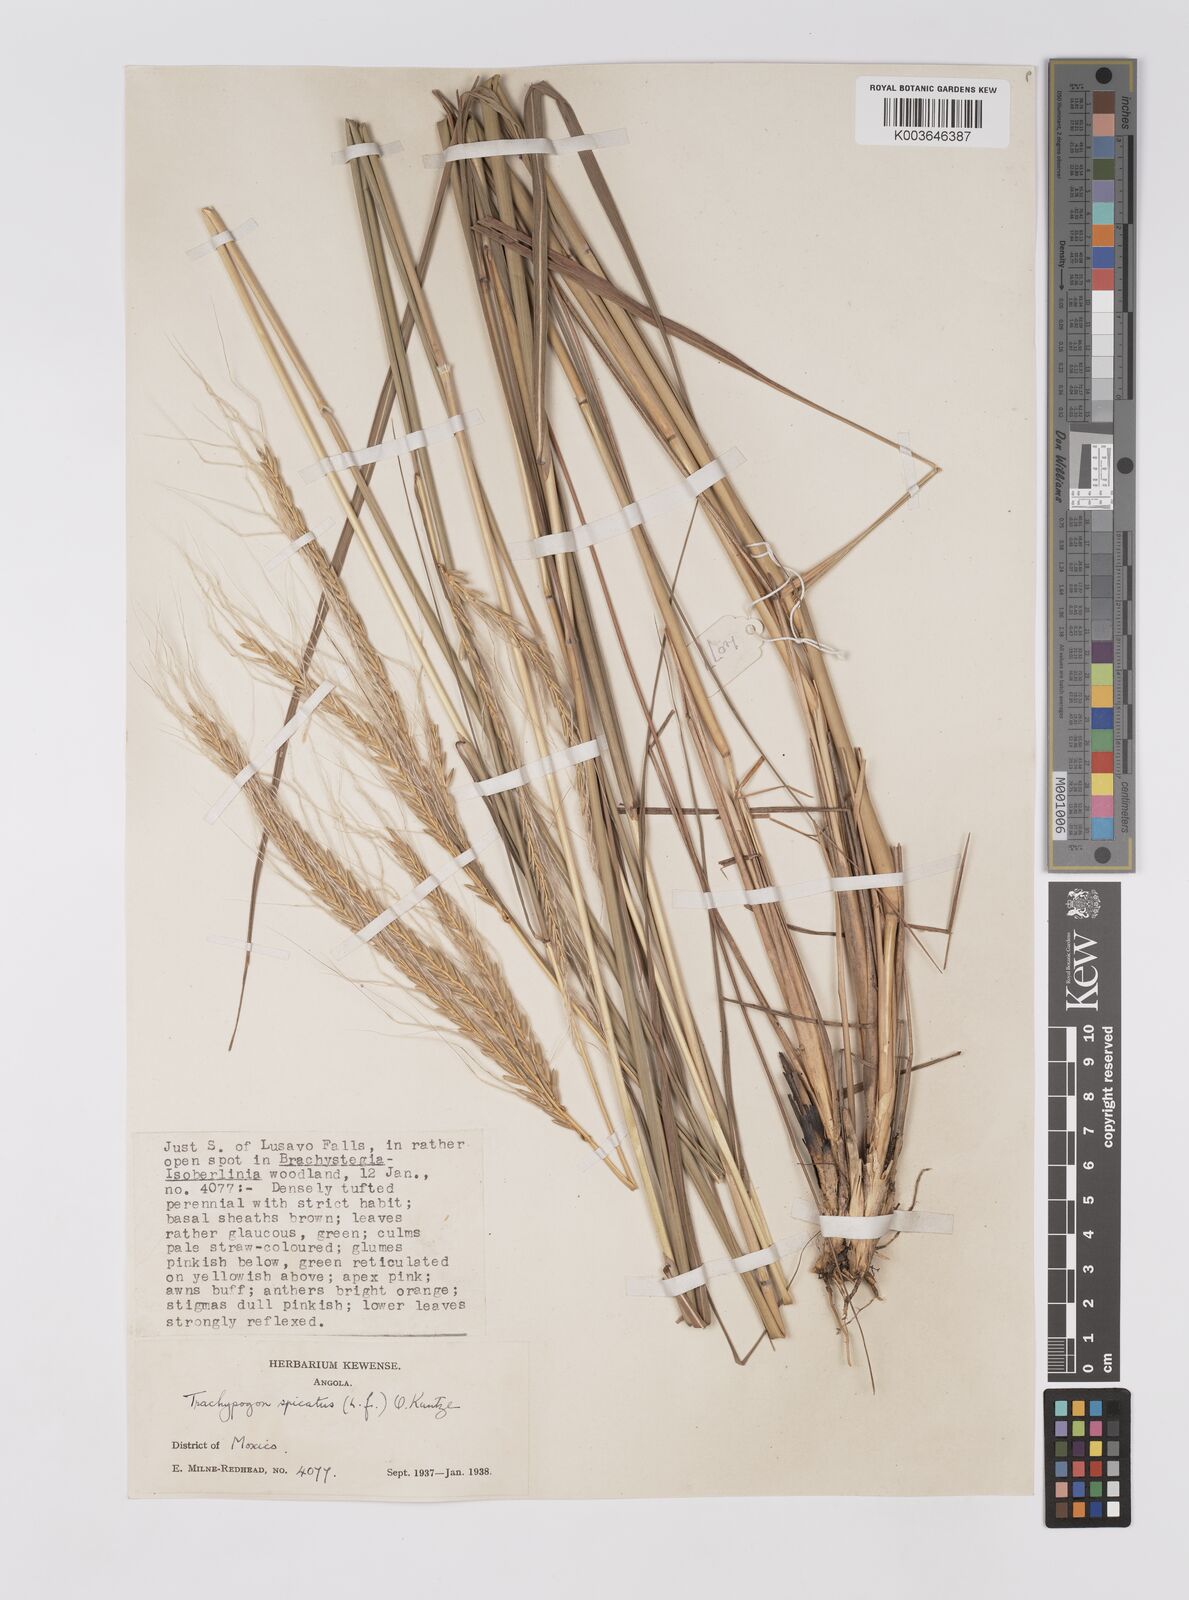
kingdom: Plantae
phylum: Tracheophyta
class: Liliopsida
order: Poales
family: Poaceae
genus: Trachypogon
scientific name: Trachypogon spicatus
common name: Crinkle-awn
